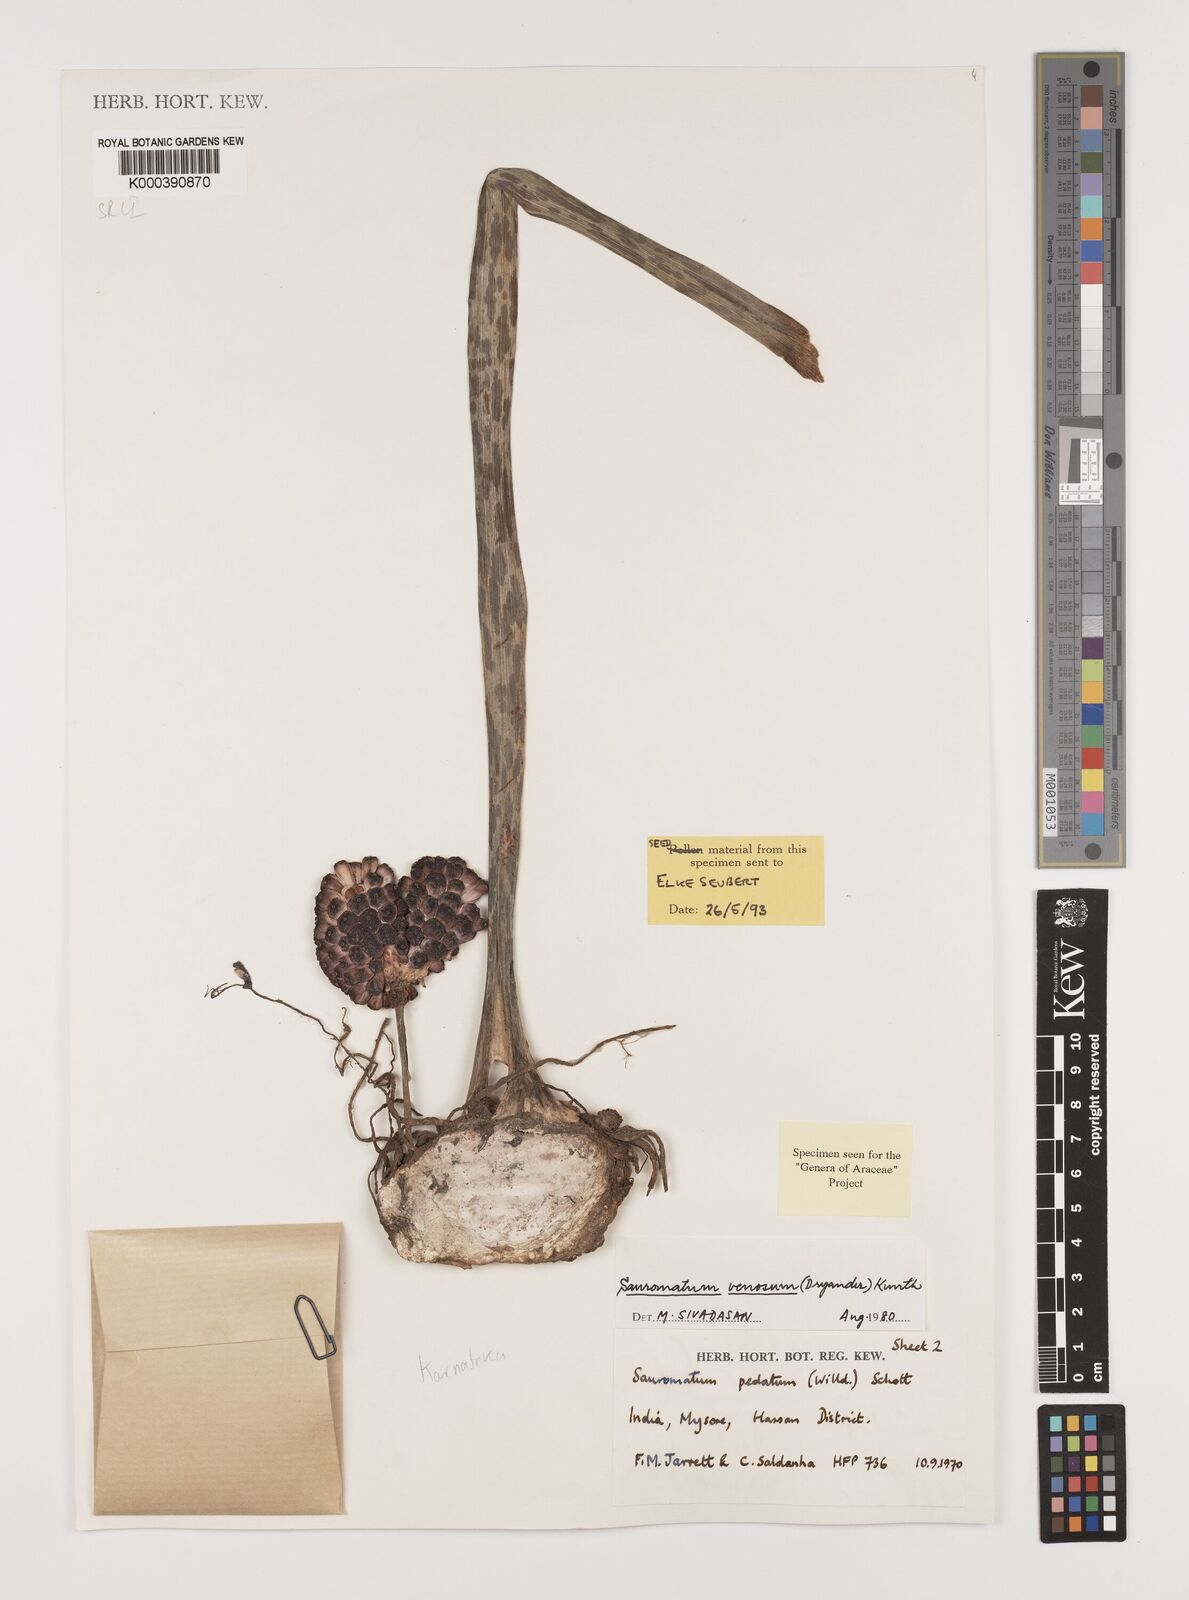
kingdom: Plantae
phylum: Tracheophyta
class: Liliopsida
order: Alismatales
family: Araceae
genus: Sauromatum
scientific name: Sauromatum venosum
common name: Voodoo lily
